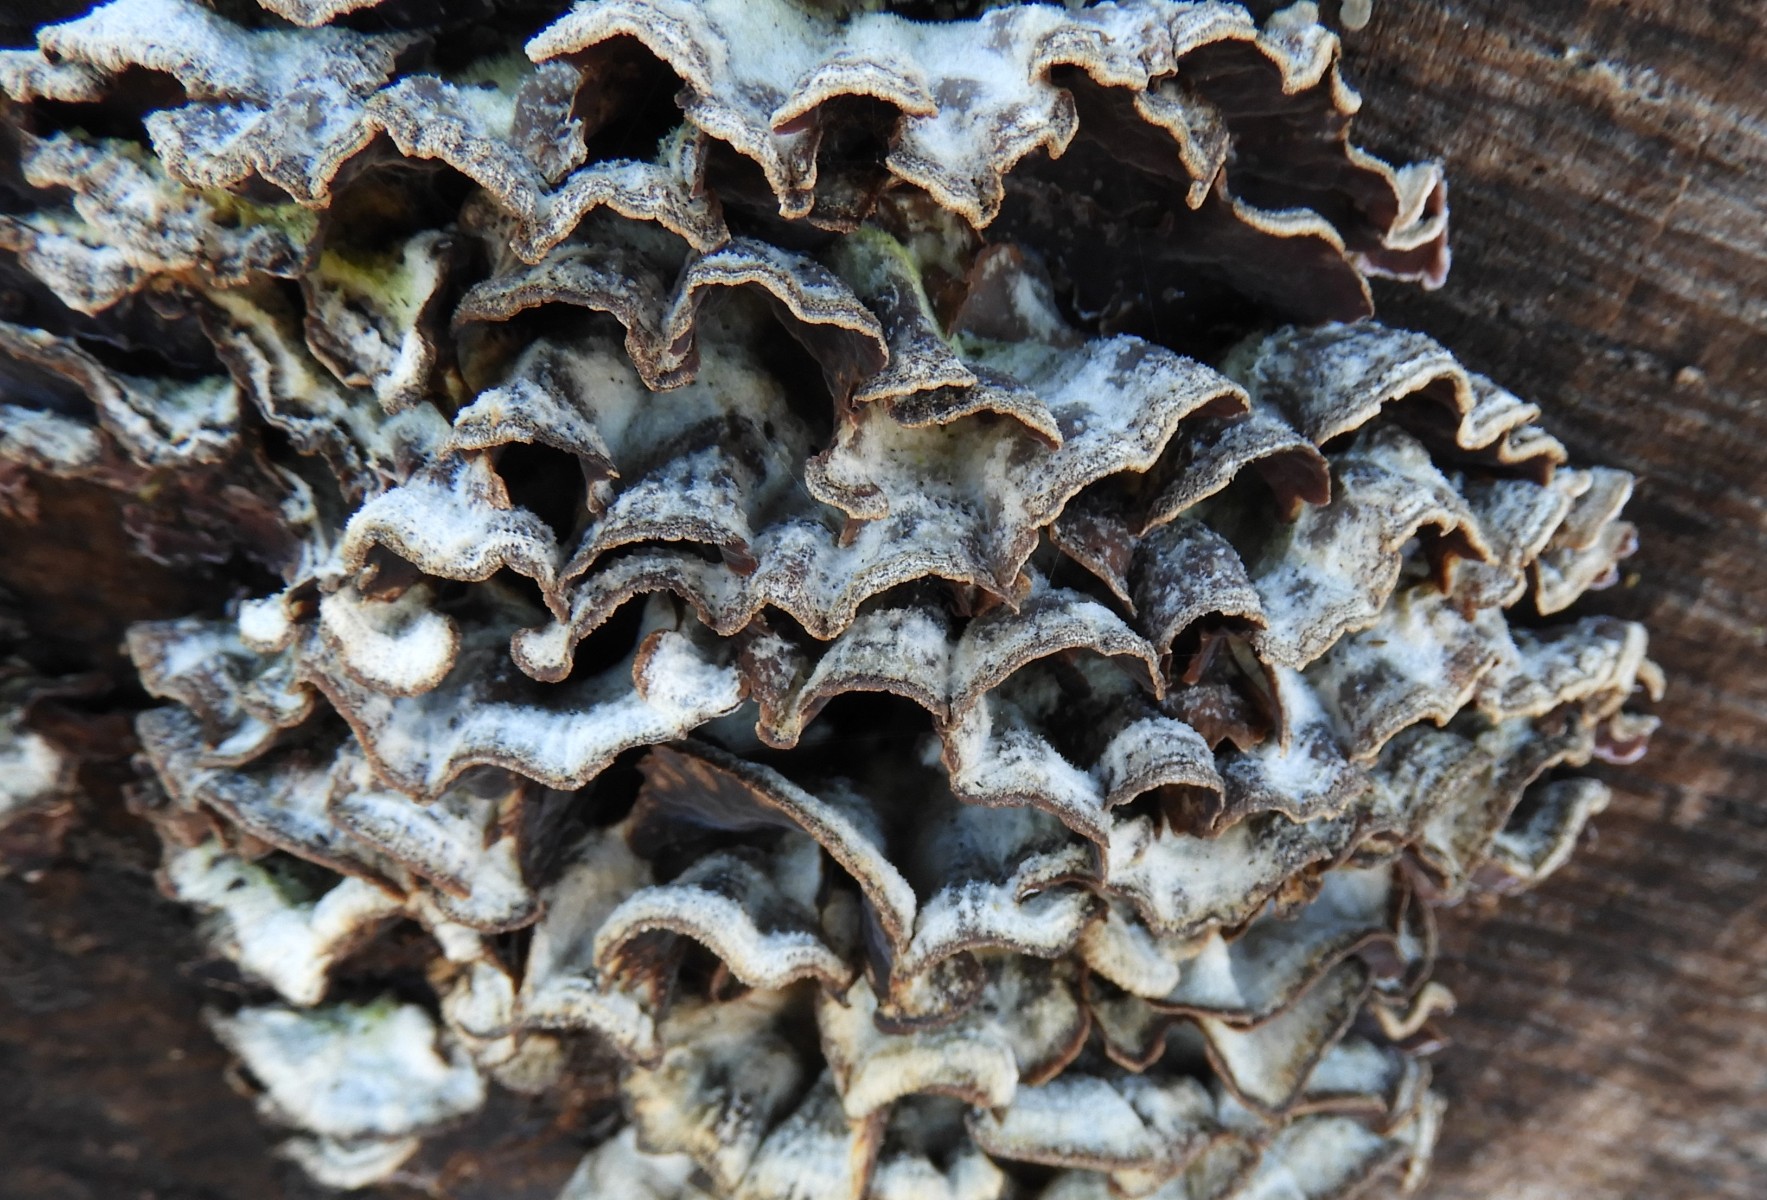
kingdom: Fungi
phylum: Basidiomycota
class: Agaricomycetes
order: Agaricales
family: Cyphellaceae
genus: Chondrostereum
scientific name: Chondrostereum purpureum
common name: purpurlædersvamp
